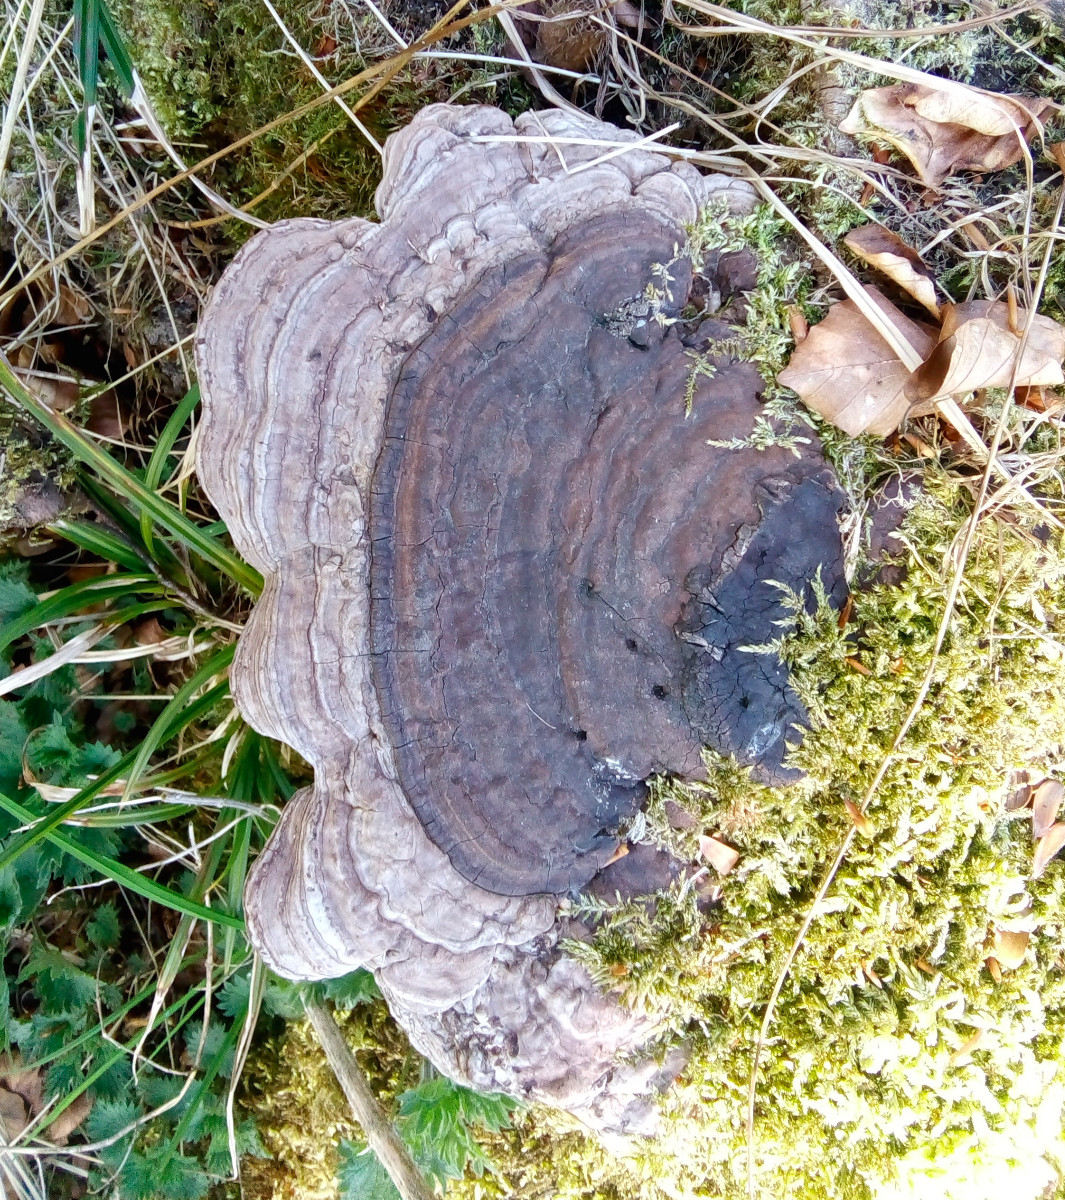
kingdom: Fungi
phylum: Basidiomycota
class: Agaricomycetes
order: Polyporales
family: Polyporaceae
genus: Ganoderma
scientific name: Ganoderma applanatum
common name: flad lakporesvamp
